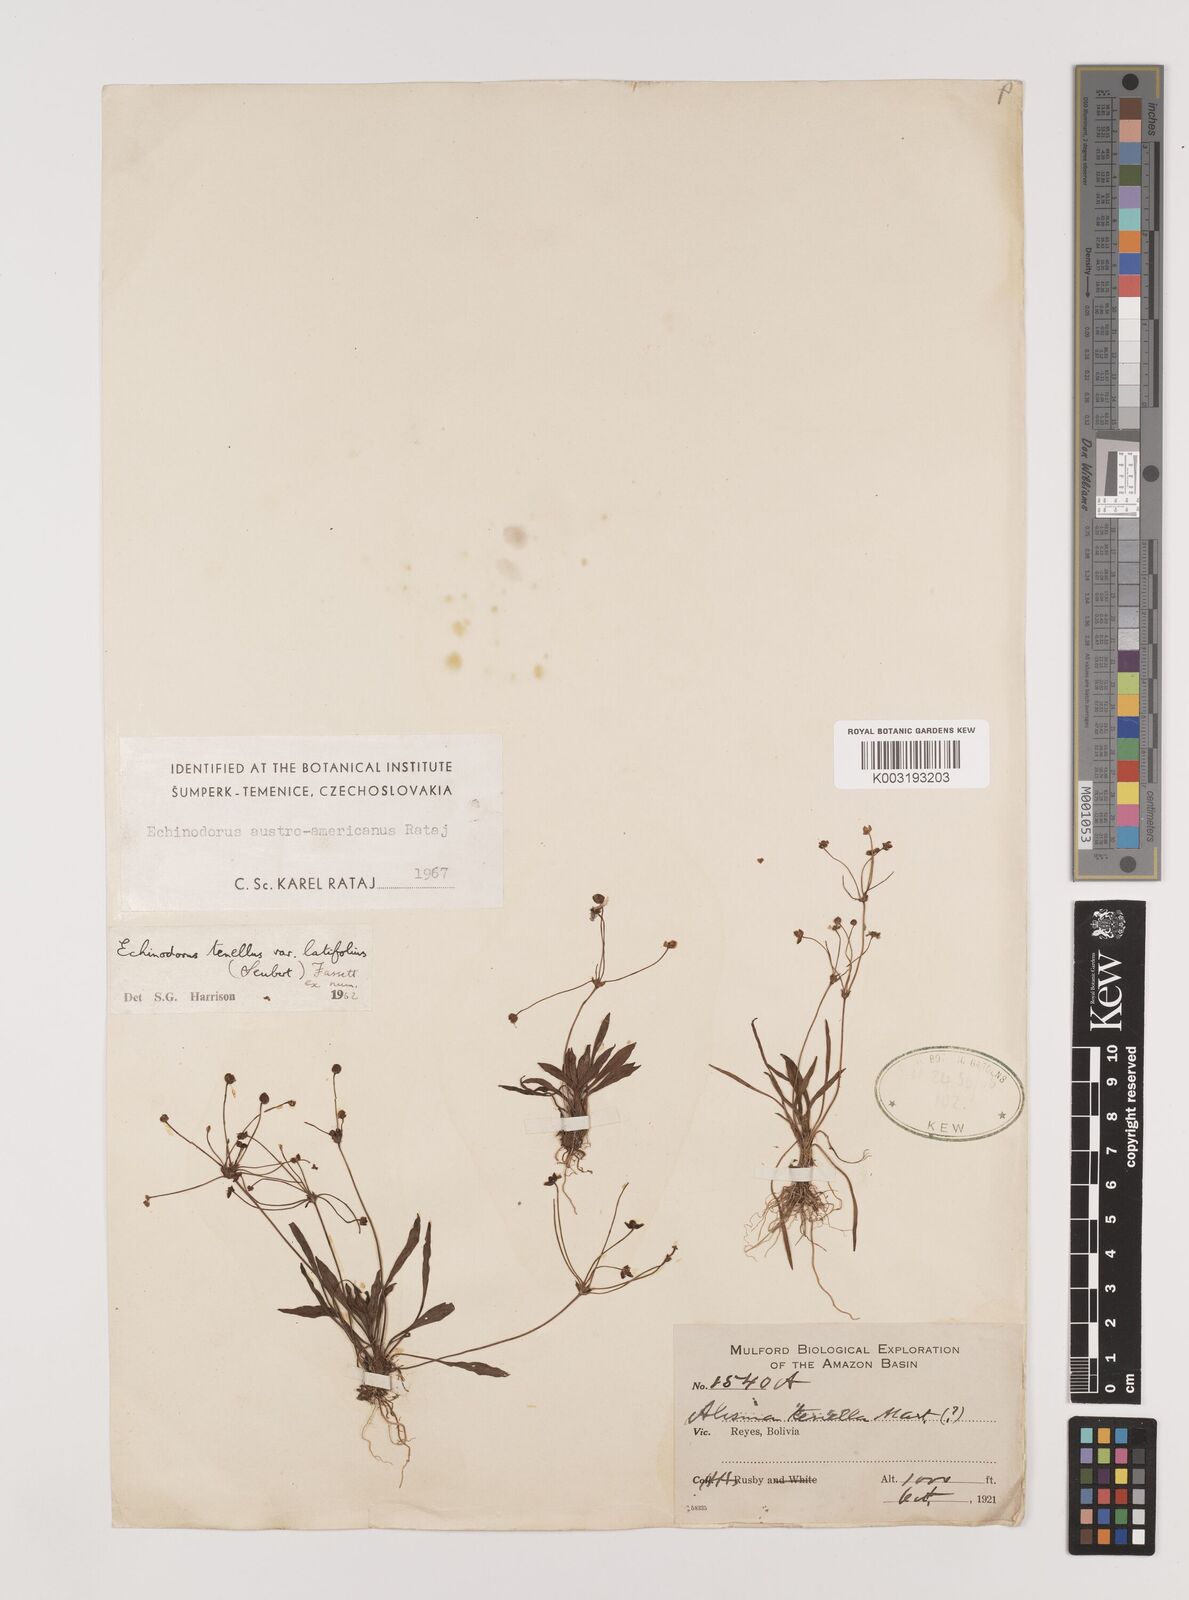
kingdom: Plantae
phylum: Tracheophyta
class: Liliopsida
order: Alismatales
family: Alismataceae
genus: Helanthium
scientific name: Helanthium tenellum
